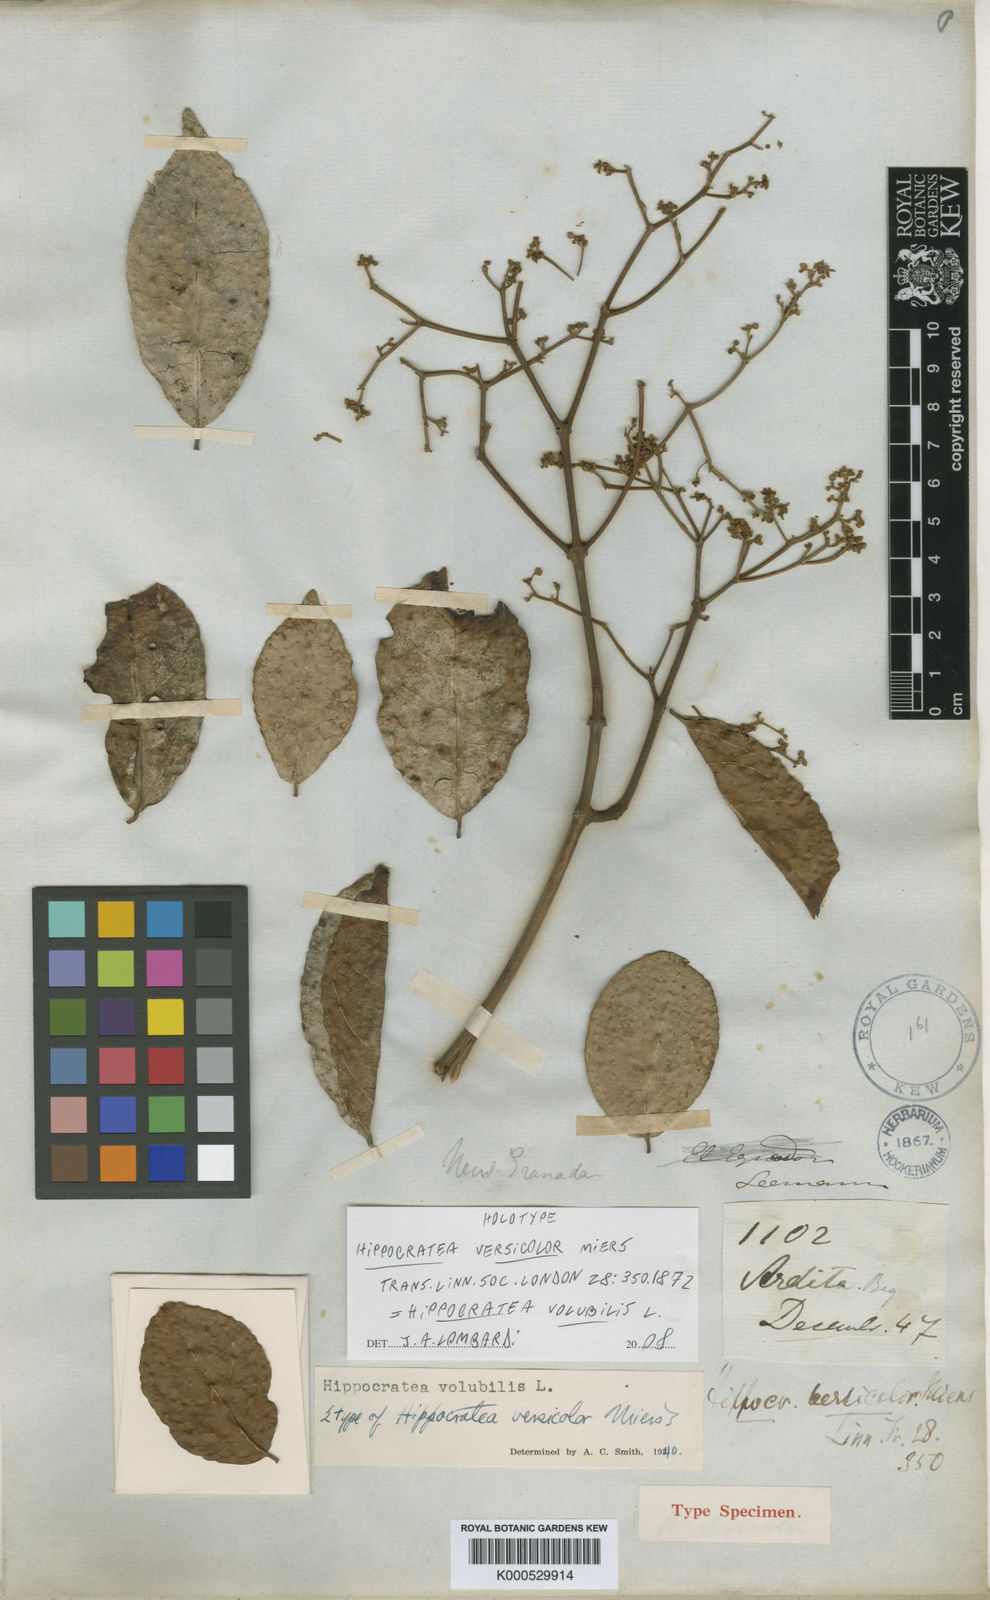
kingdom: Plantae
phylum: Tracheophyta
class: Magnoliopsida
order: Celastrales
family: Celastraceae
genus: Hippocratea
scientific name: Hippocratea volubilis
